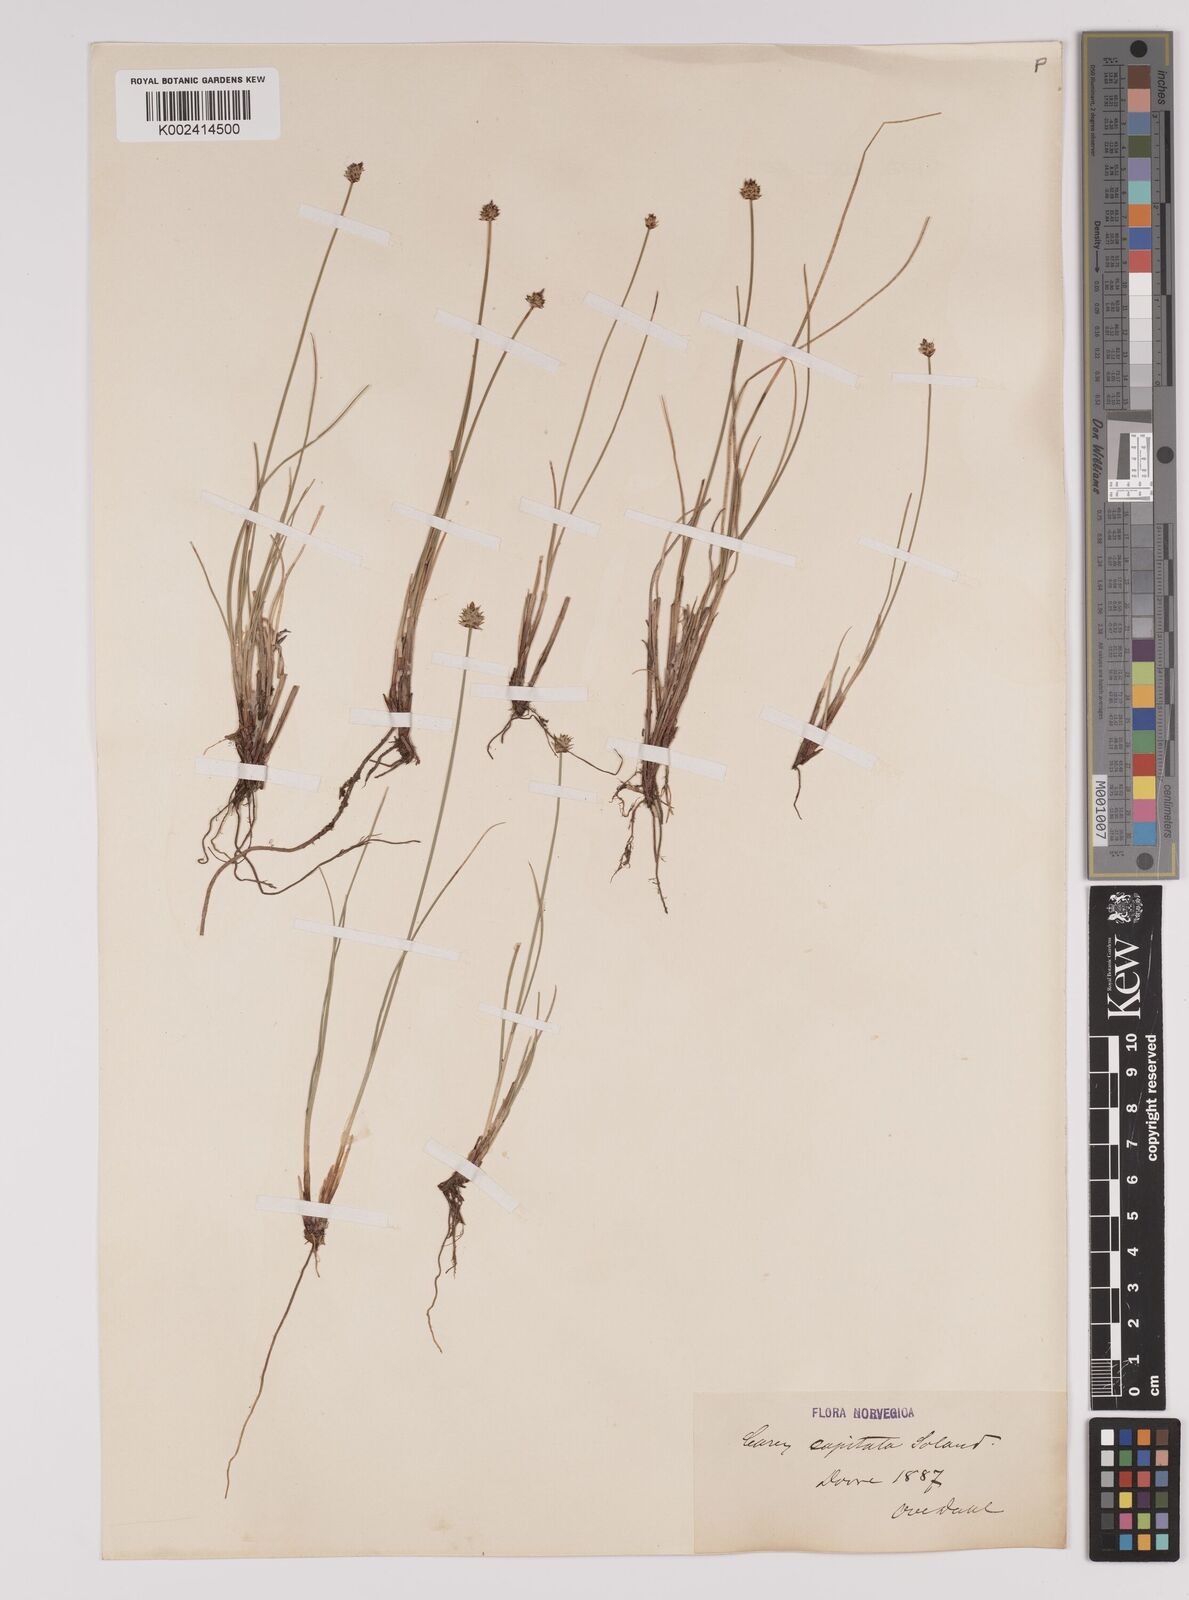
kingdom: Plantae
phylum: Tracheophyta
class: Liliopsida
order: Poales
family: Cyperaceae
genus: Carex
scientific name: Carex capitata
